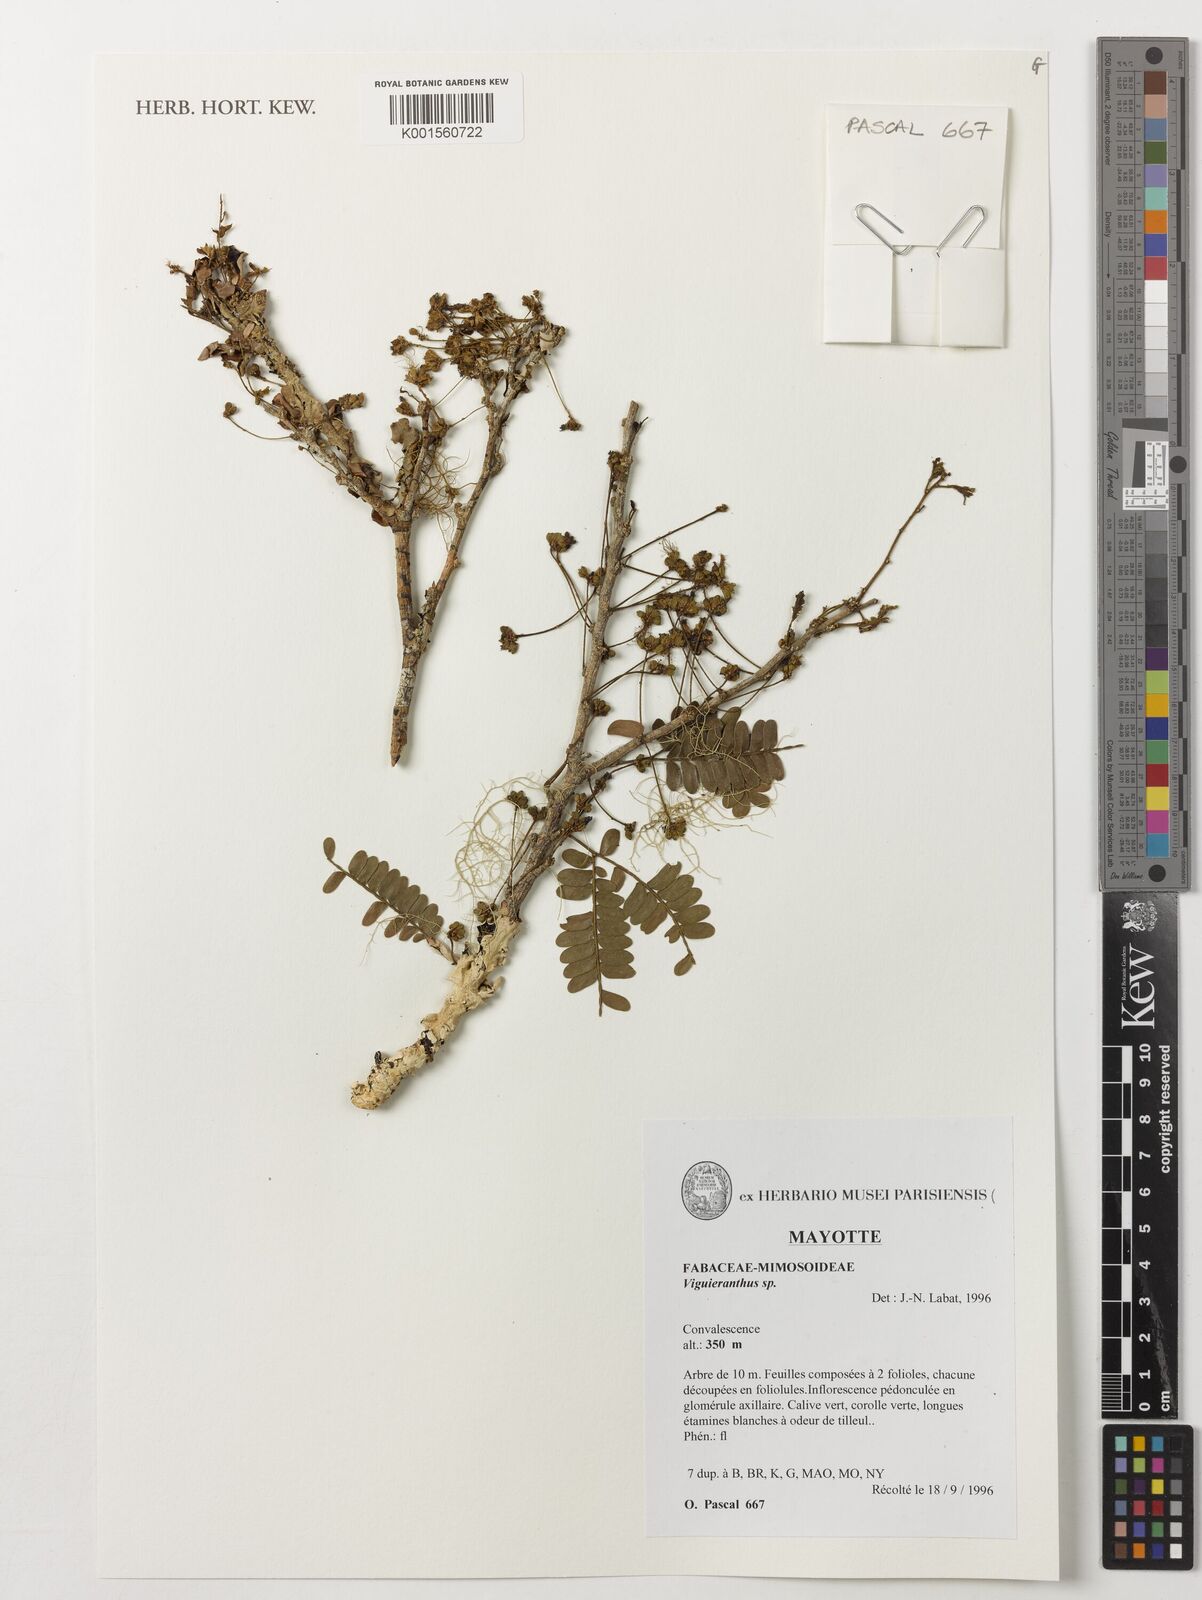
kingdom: Plantae
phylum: Tracheophyta
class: Magnoliopsida
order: Fabales
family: Fabaceae
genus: Viguieranthus
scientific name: Viguieranthus
